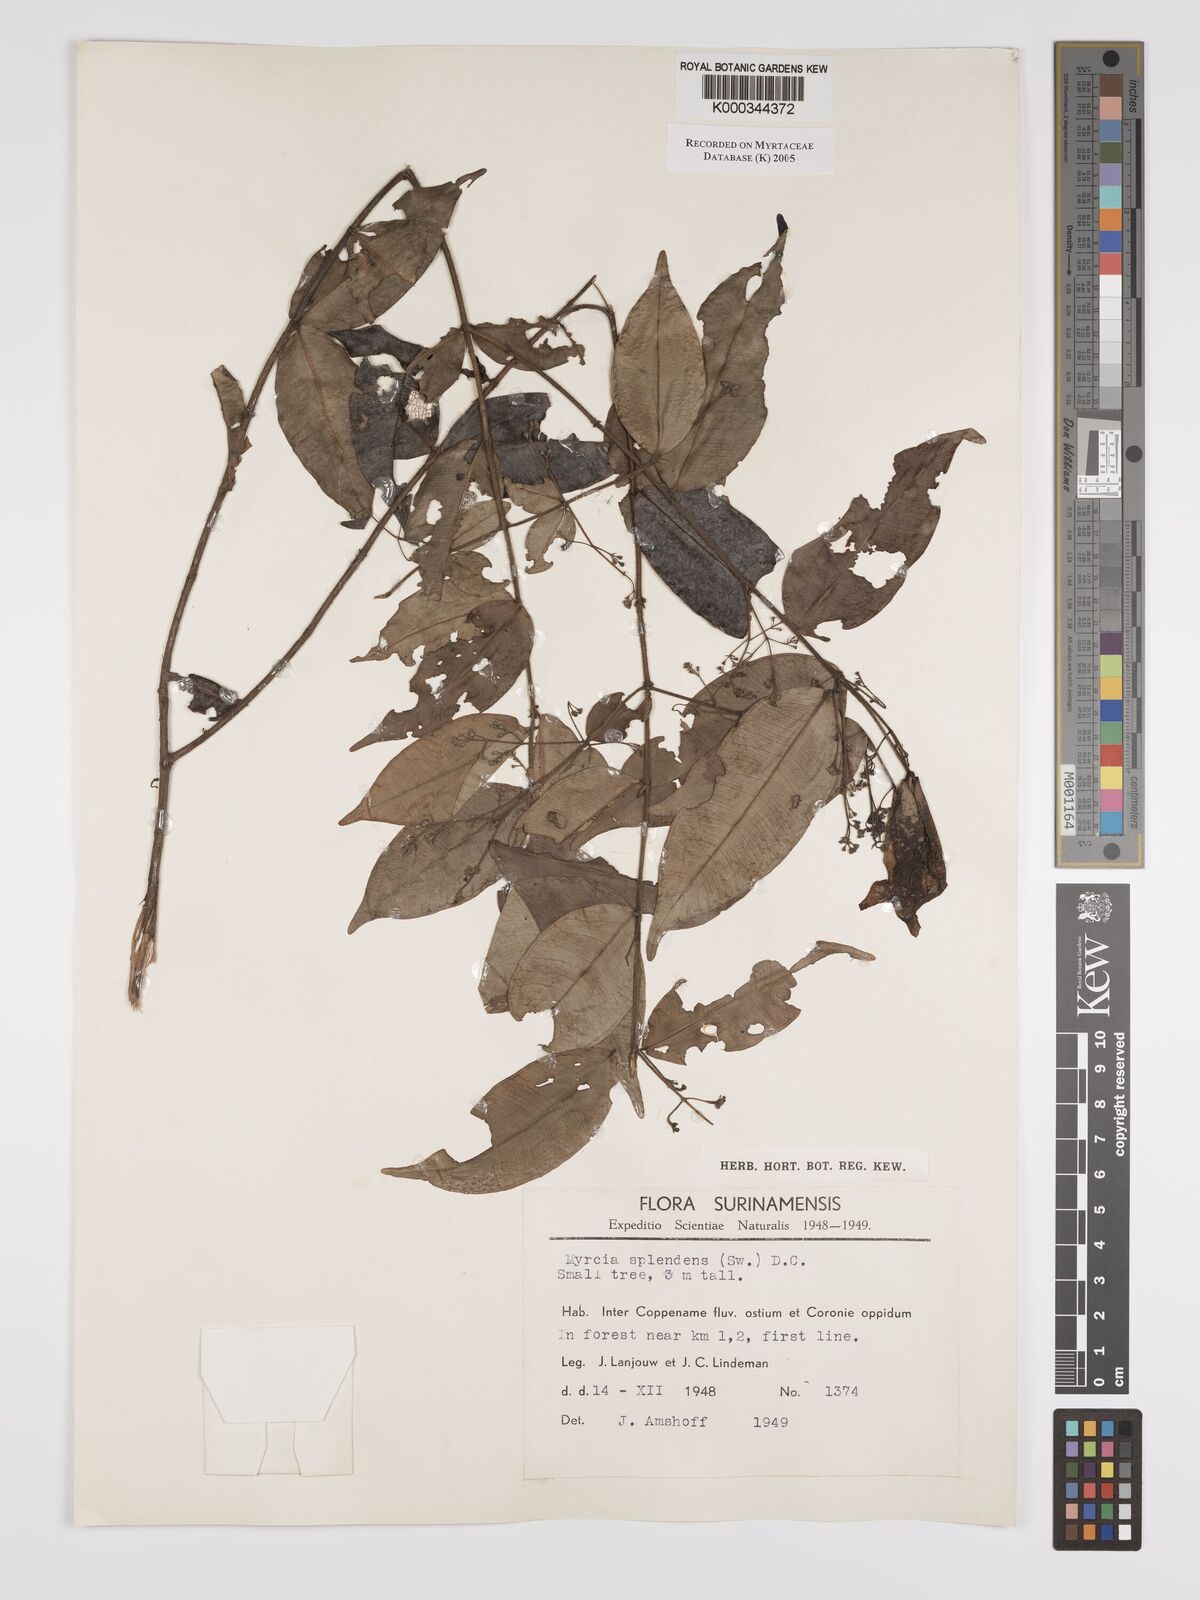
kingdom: Plantae
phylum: Tracheophyta
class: Magnoliopsida
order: Myrtales
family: Myrtaceae
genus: Myrcia
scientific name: Myrcia splendens
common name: Surinam cherry
